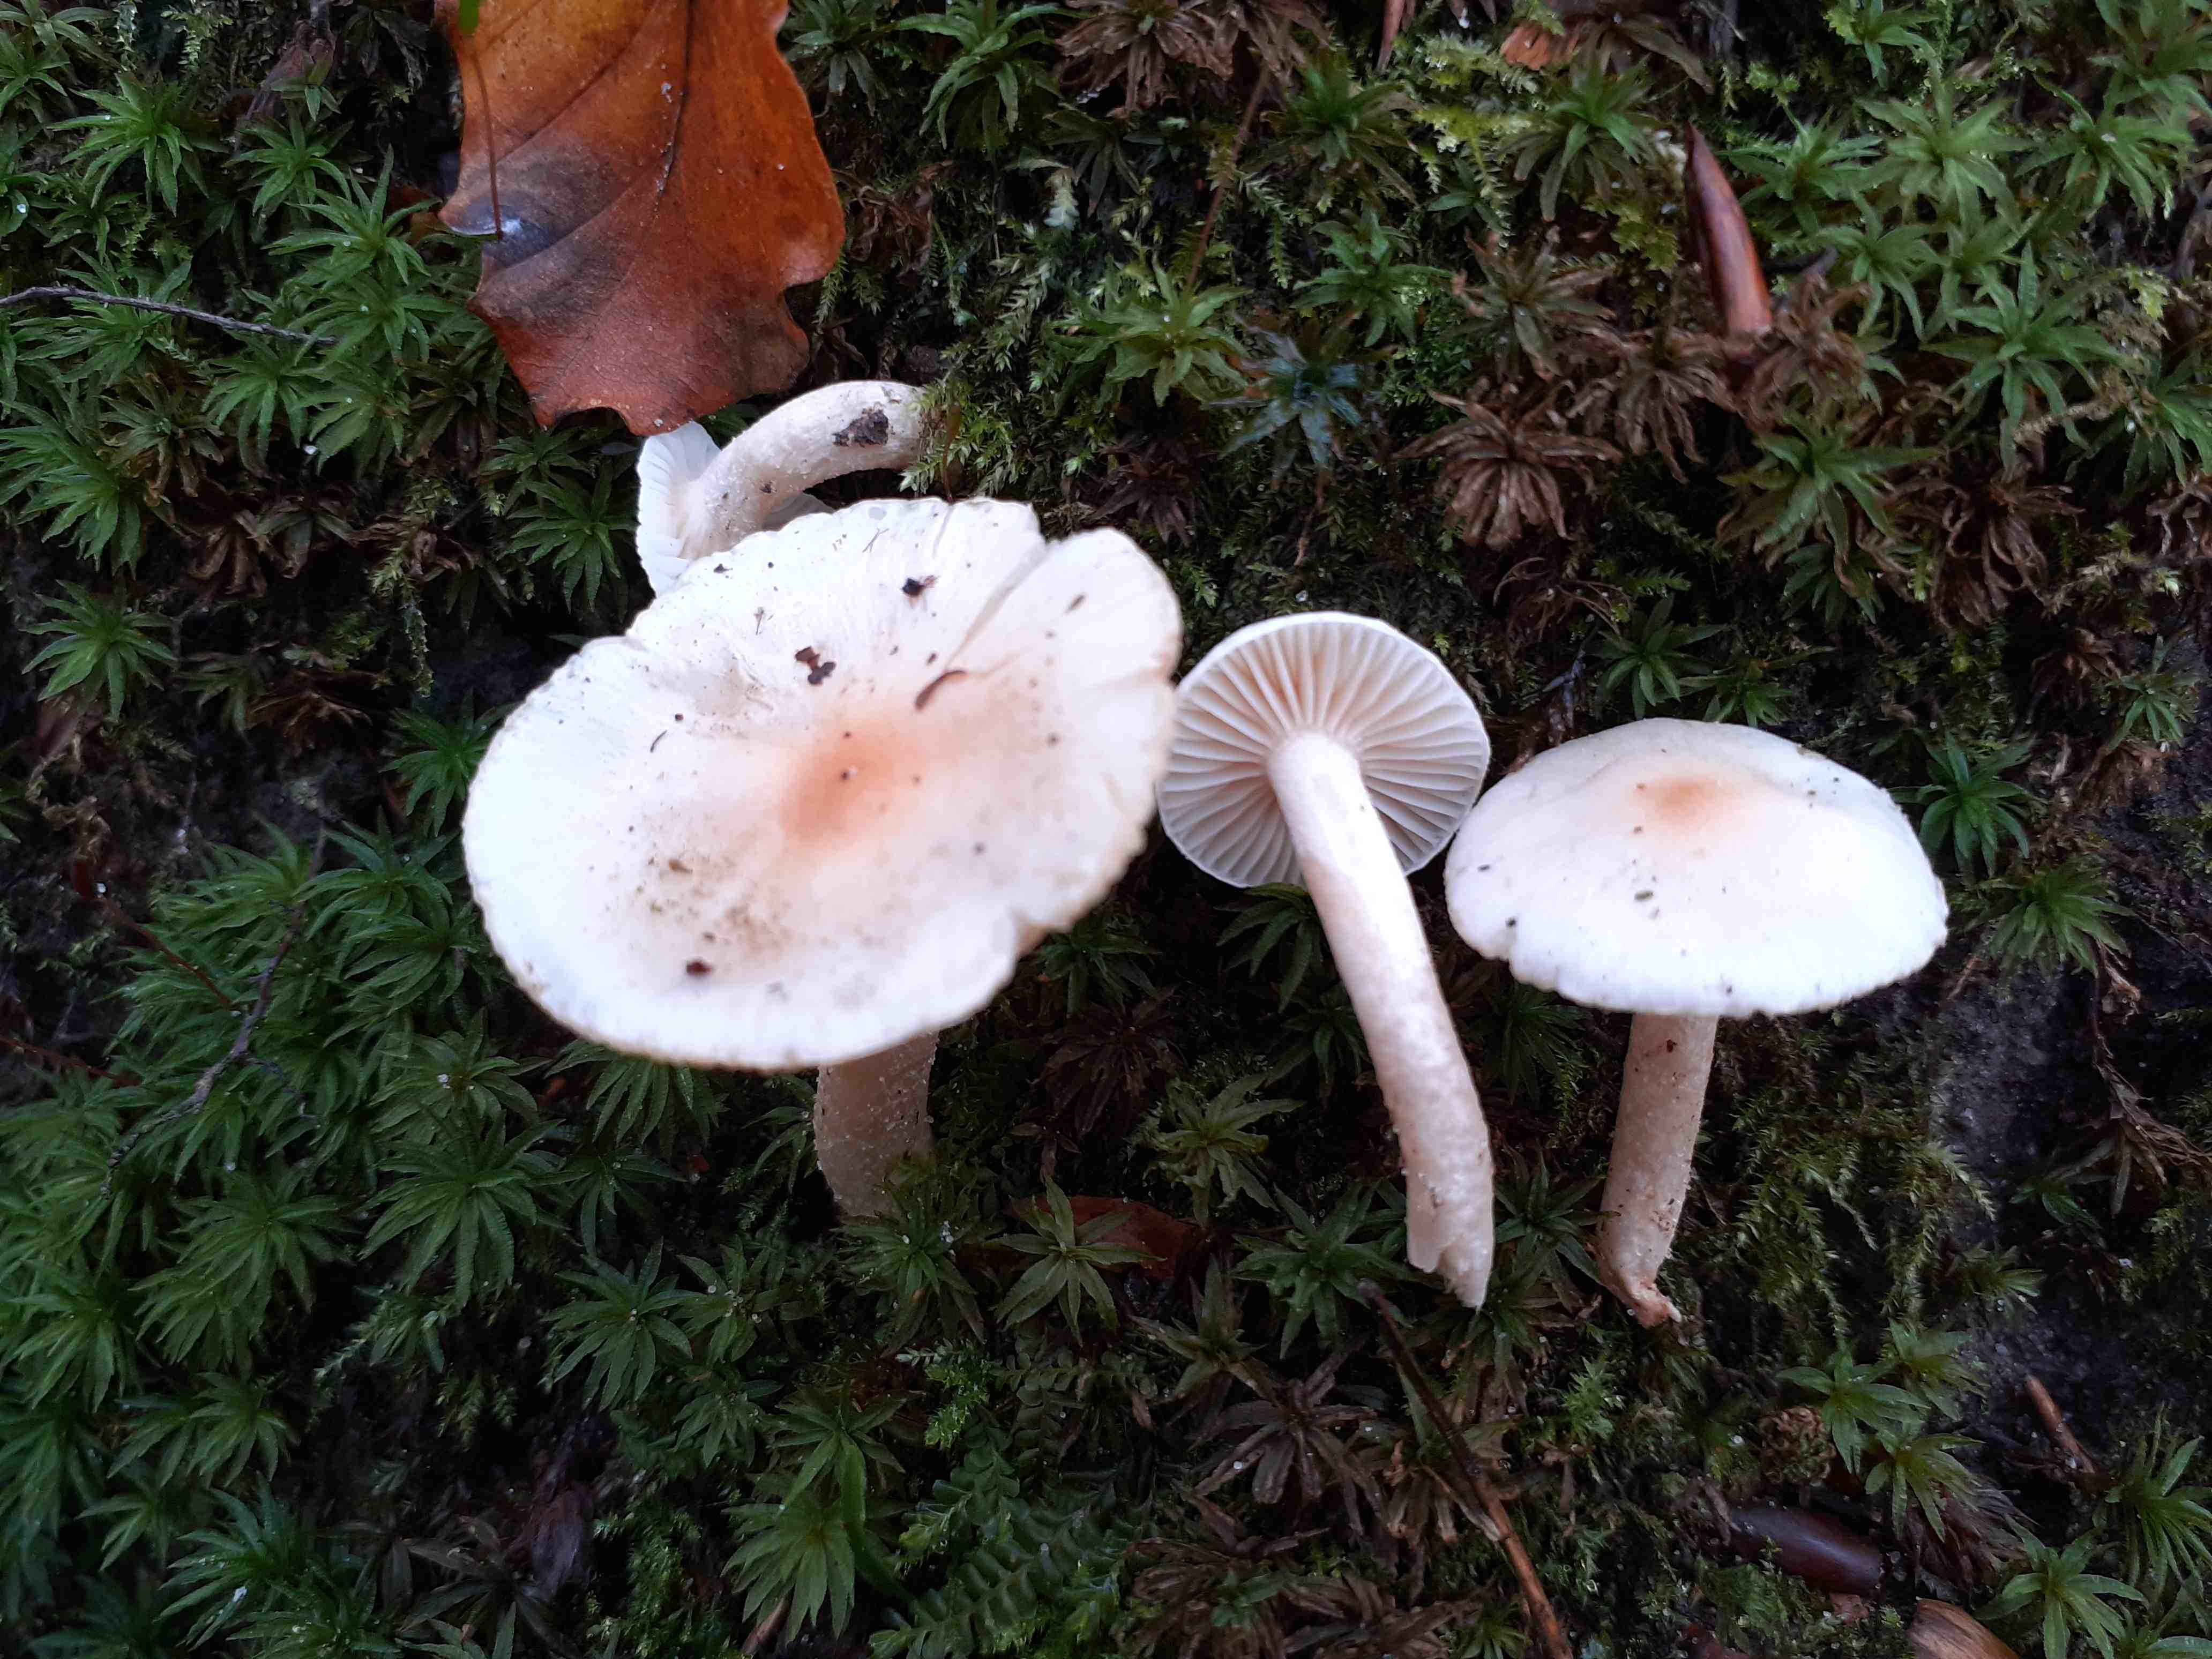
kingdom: Fungi
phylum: Basidiomycota
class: Agaricomycetes
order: Agaricales
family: Hygrophoraceae
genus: Hygrophorus
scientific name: Hygrophorus unicolor
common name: orangeøjet sneglehat
